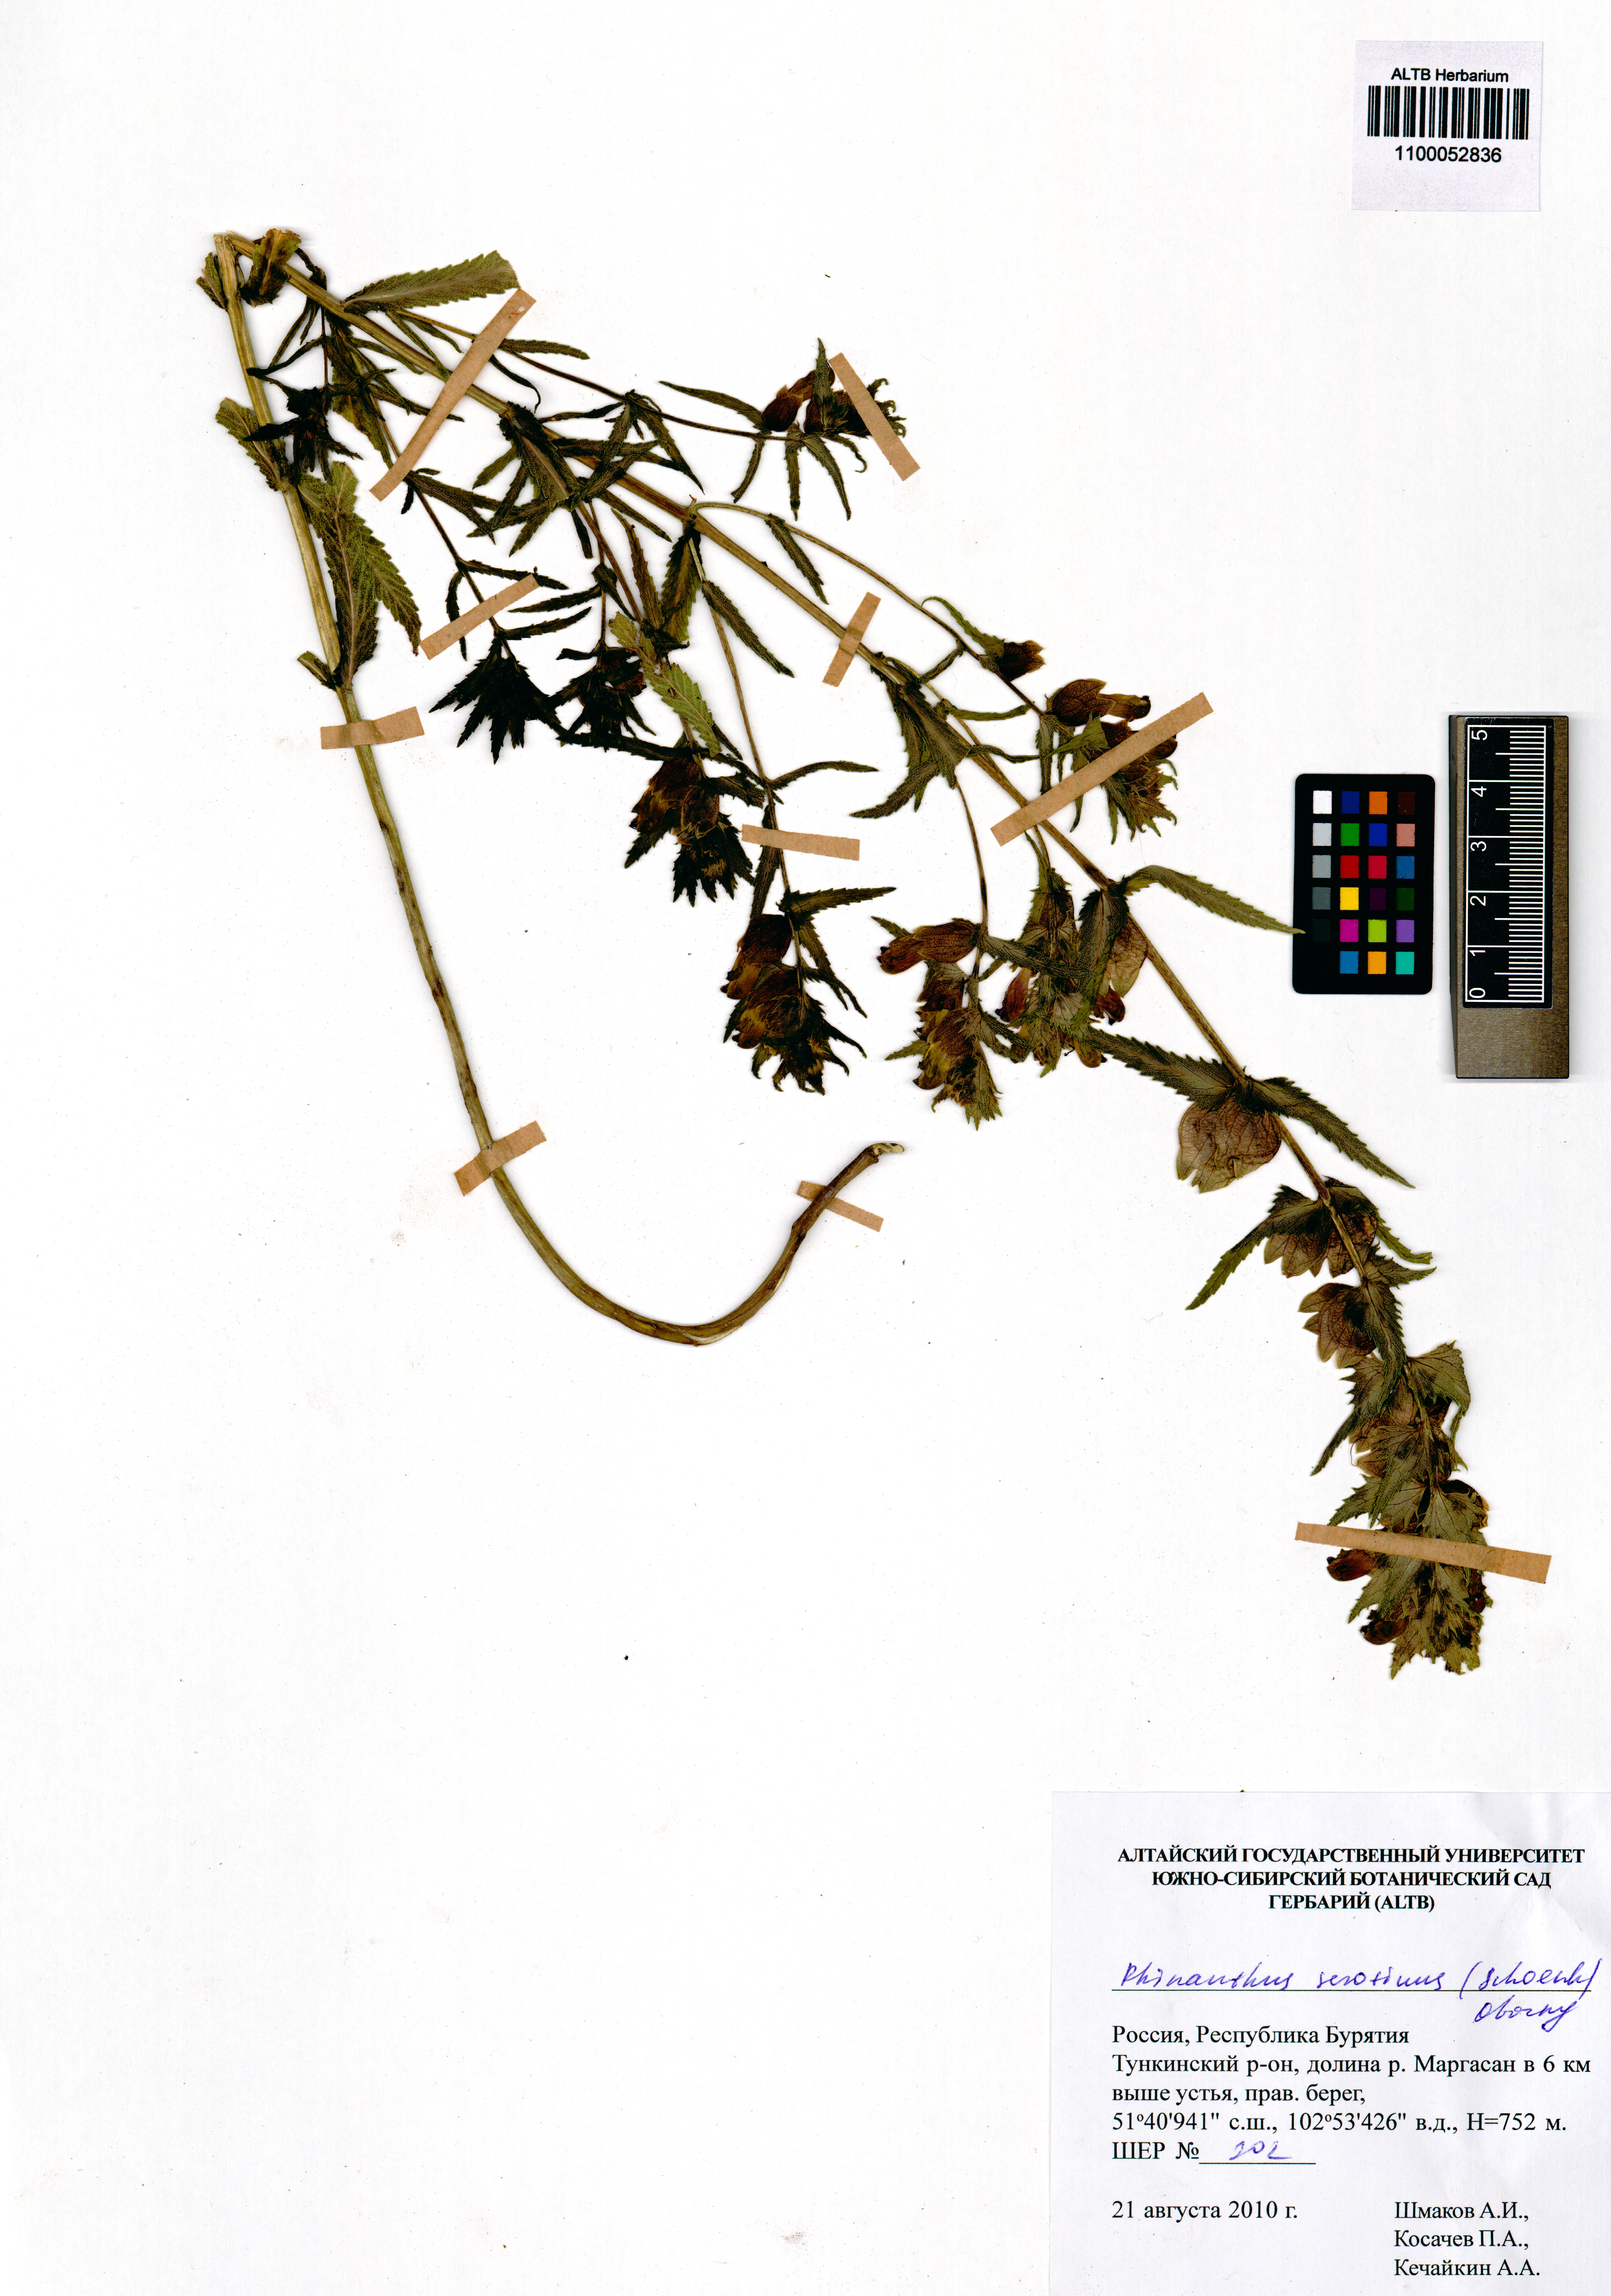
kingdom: Plantae
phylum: Tracheophyta
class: Magnoliopsida
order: Lamiales
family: Orobanchaceae
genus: Rhinanthus
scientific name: Rhinanthus serotinus
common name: Late-flowering yellow rattle
